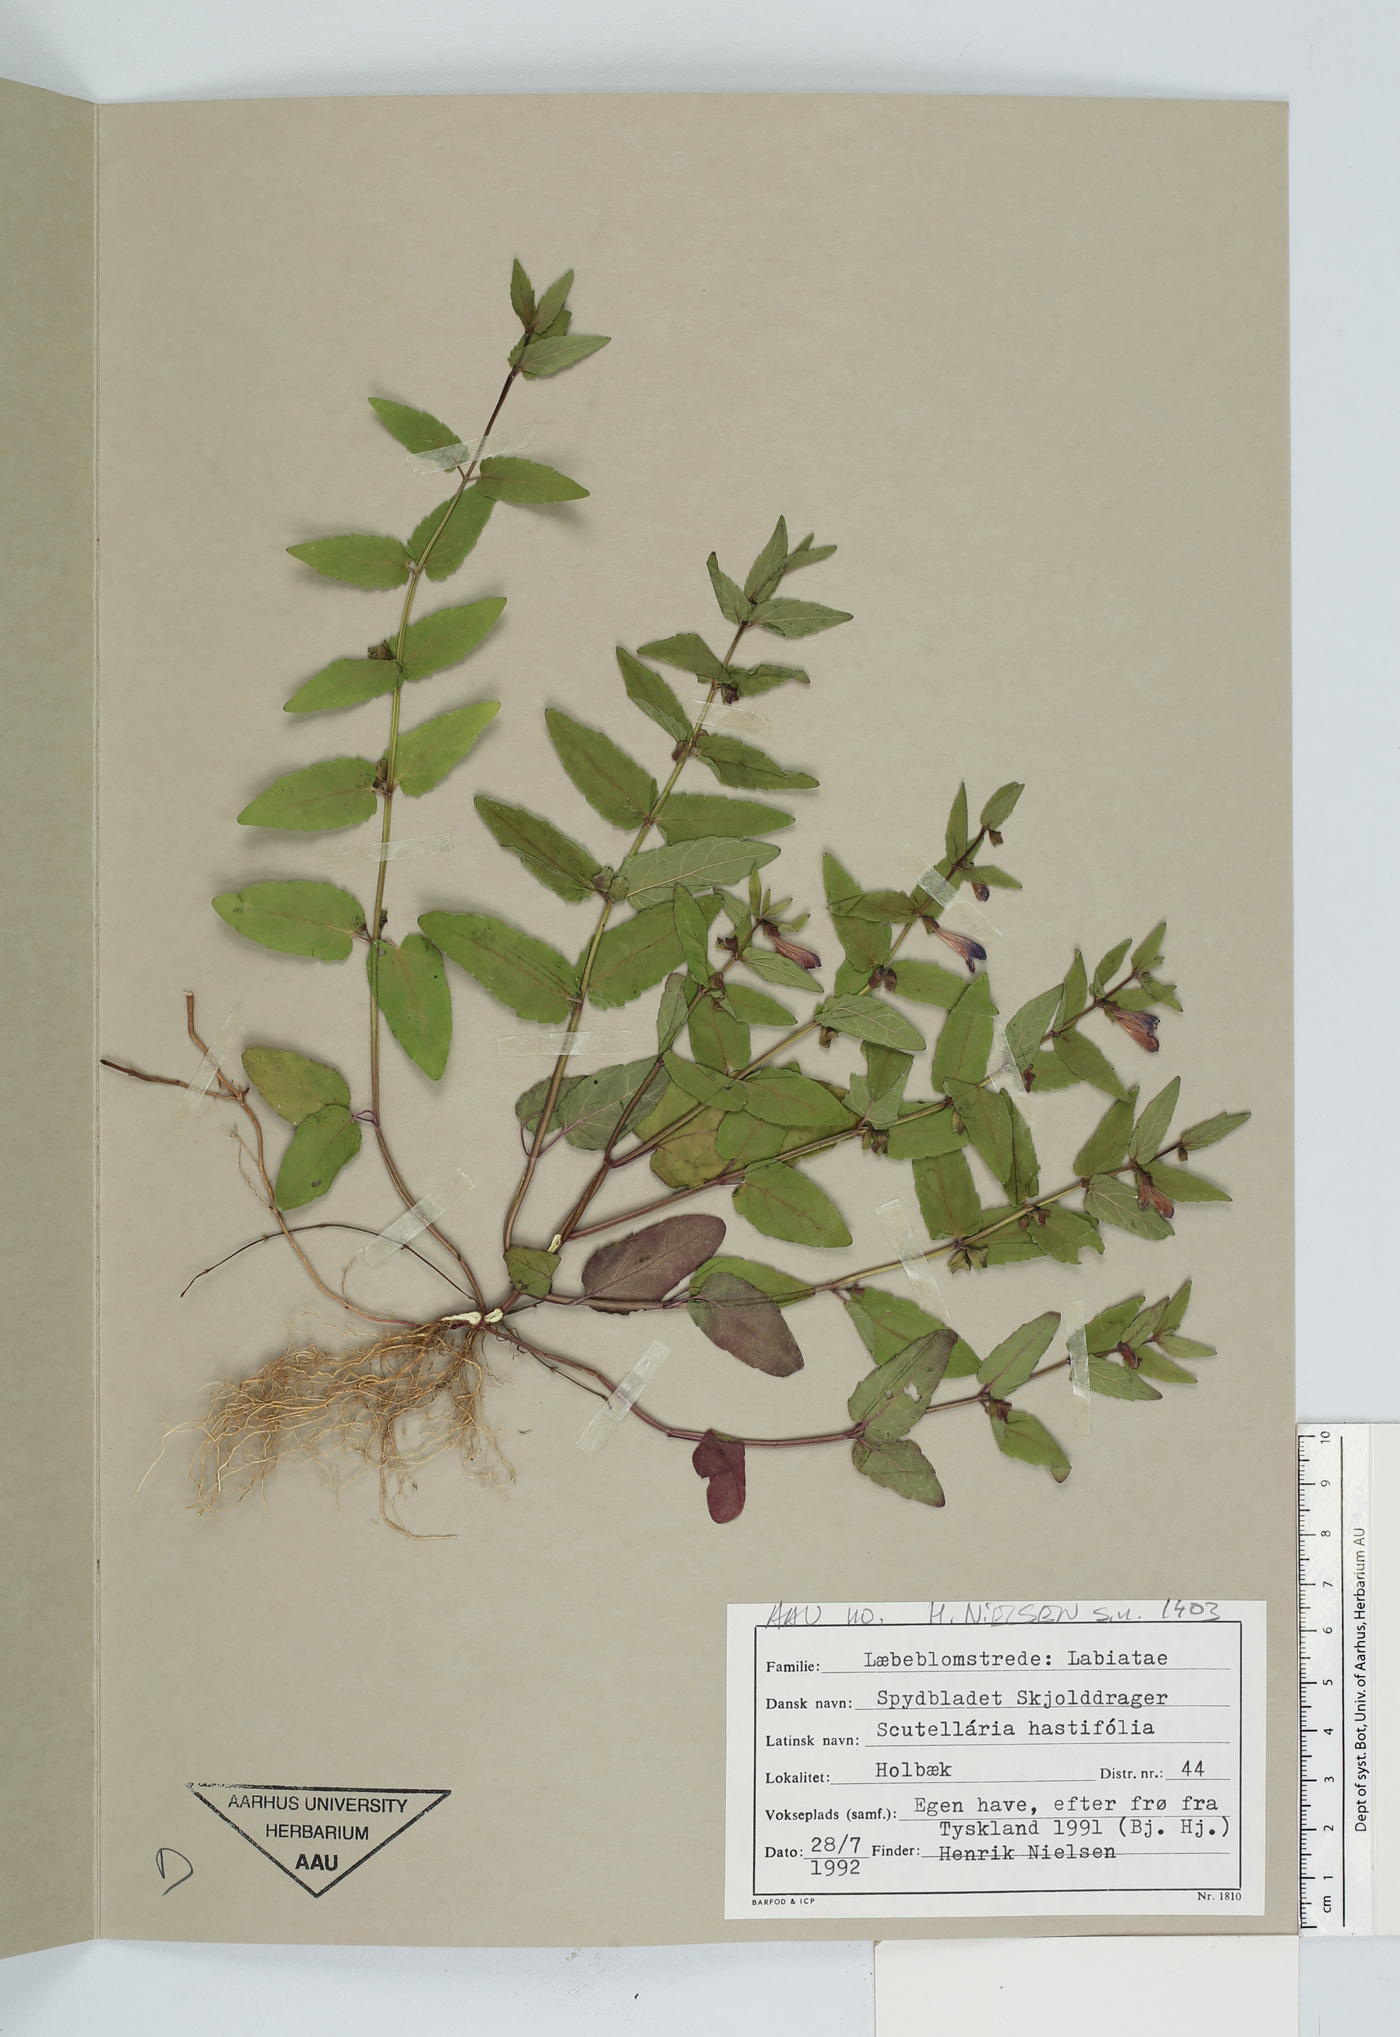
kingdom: Plantae
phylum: Tracheophyta
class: Magnoliopsida
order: Lamiales
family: Lamiaceae
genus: Scutellaria
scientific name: Scutellaria hastifolia
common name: Norfolk skullcap
